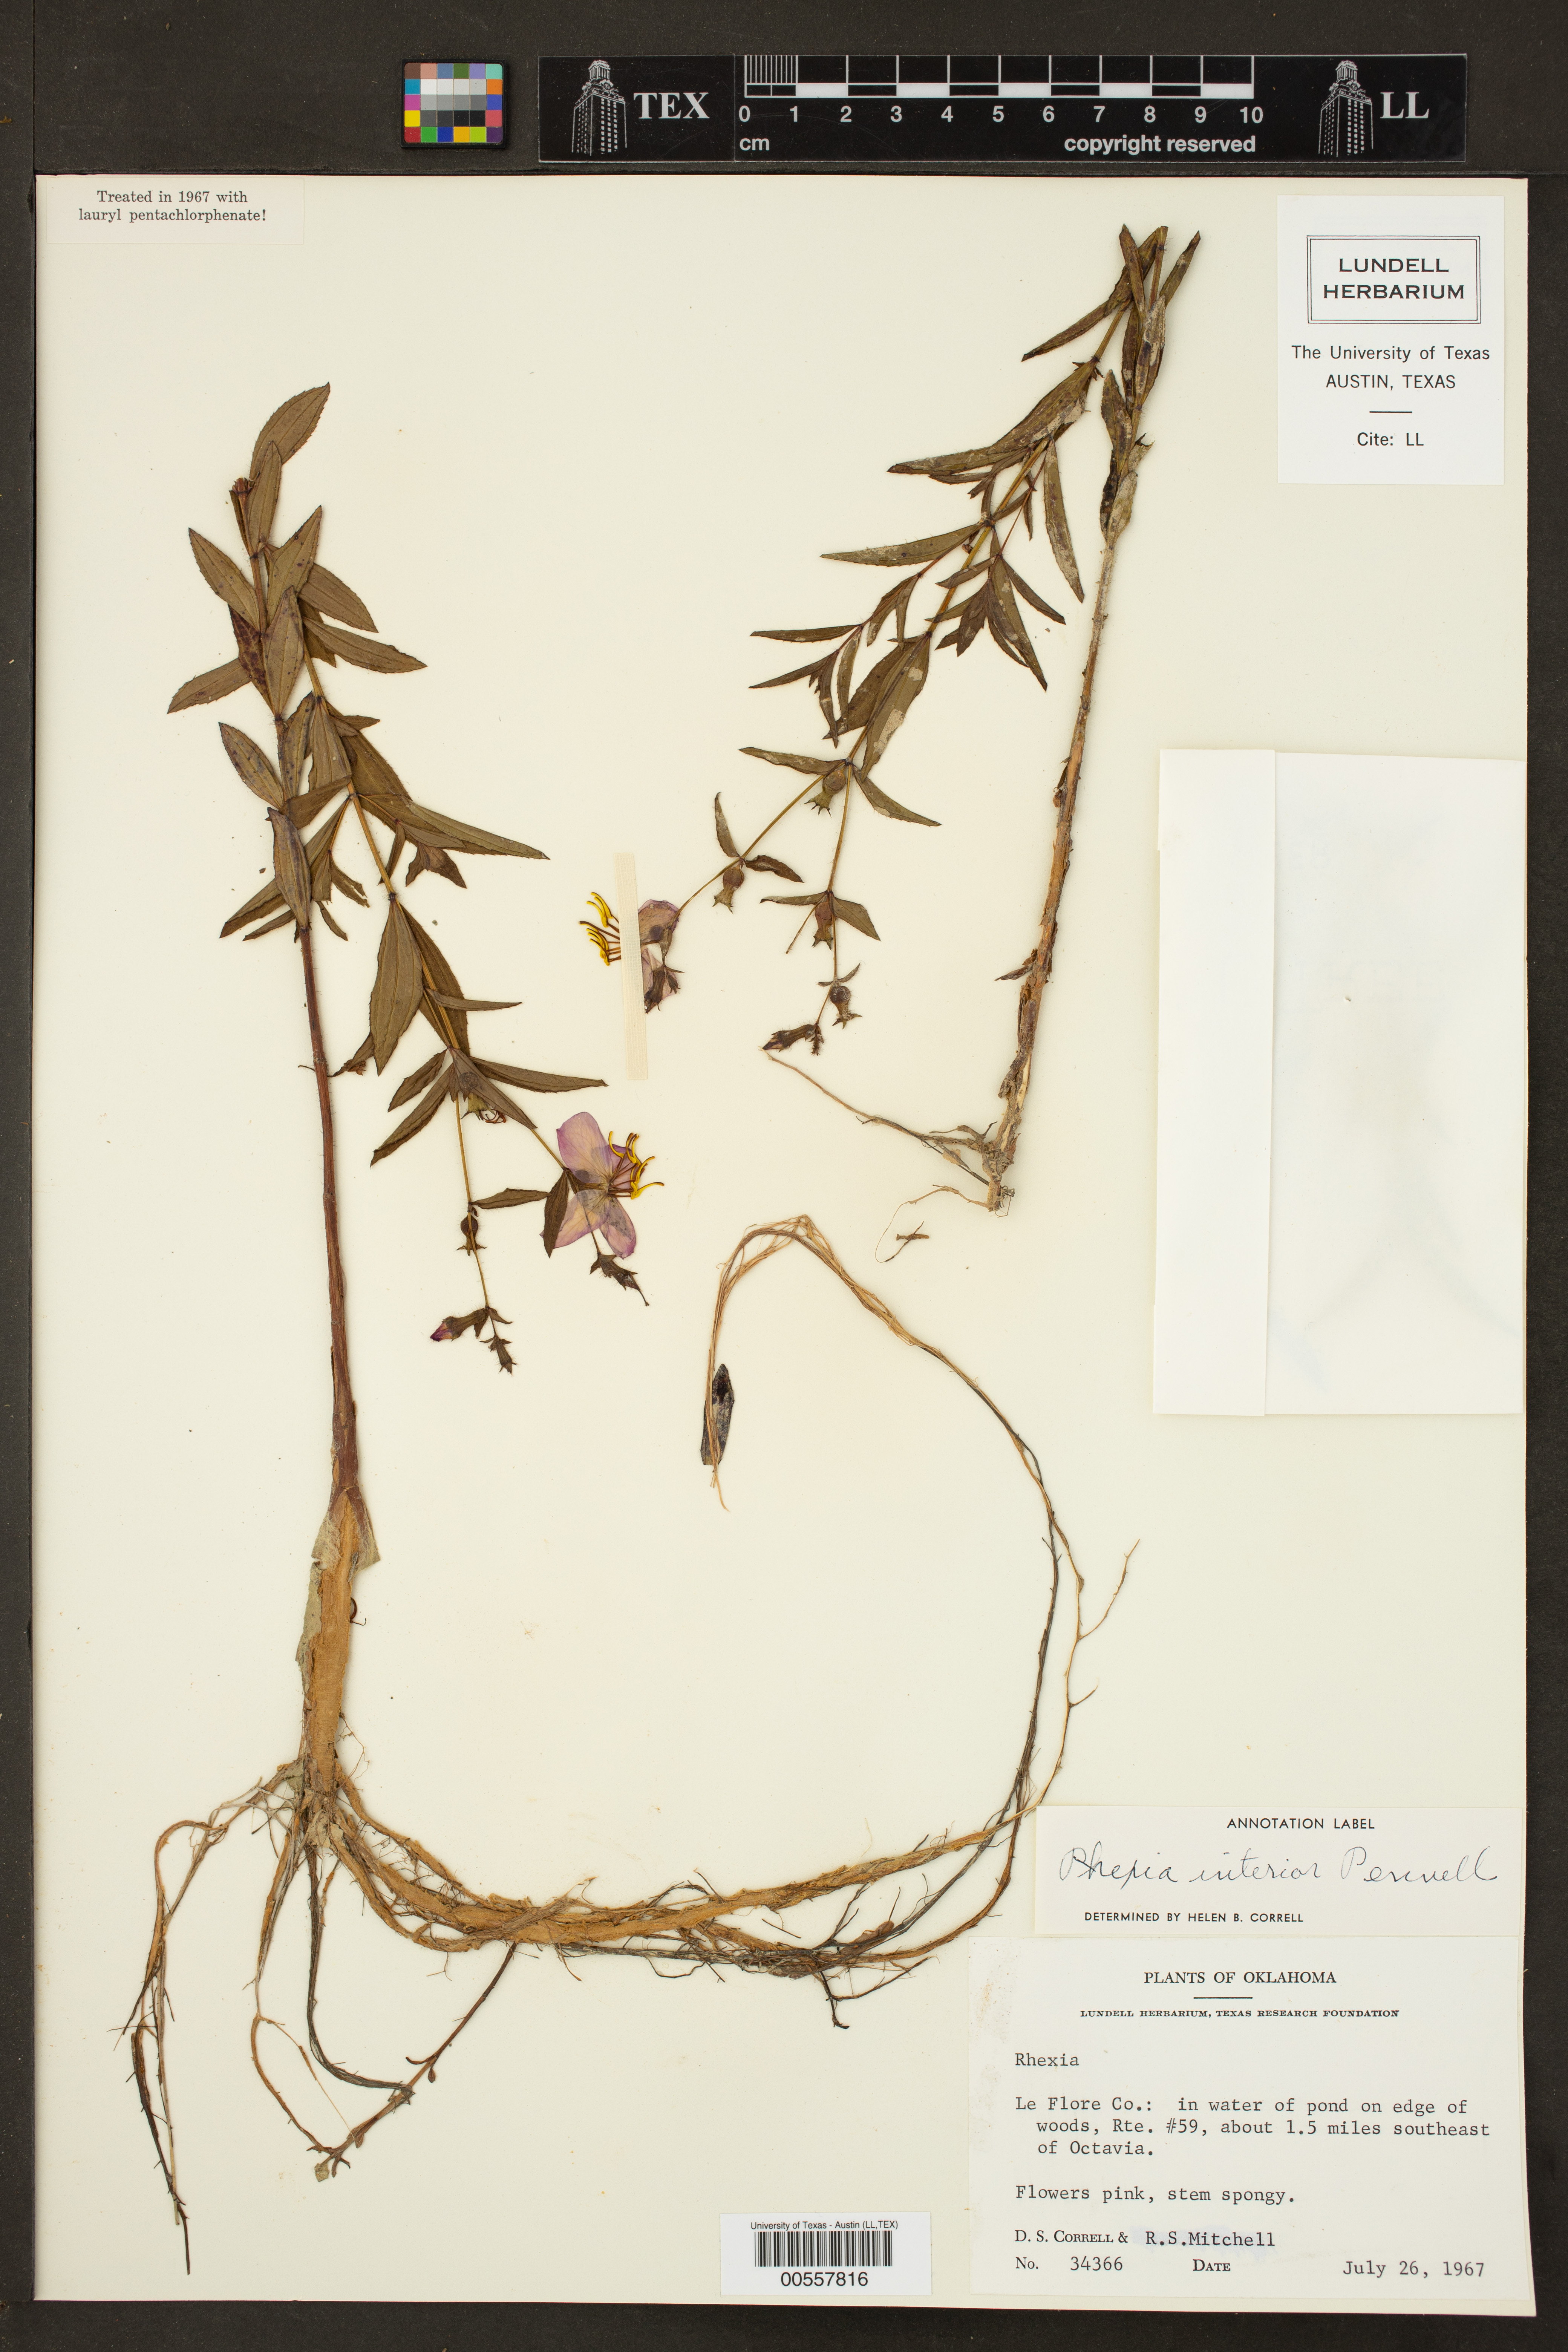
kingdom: Plantae
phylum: Tracheophyta
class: Magnoliopsida
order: Myrtales
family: Melastomataceae
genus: Rhexia
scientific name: Rhexia interior
